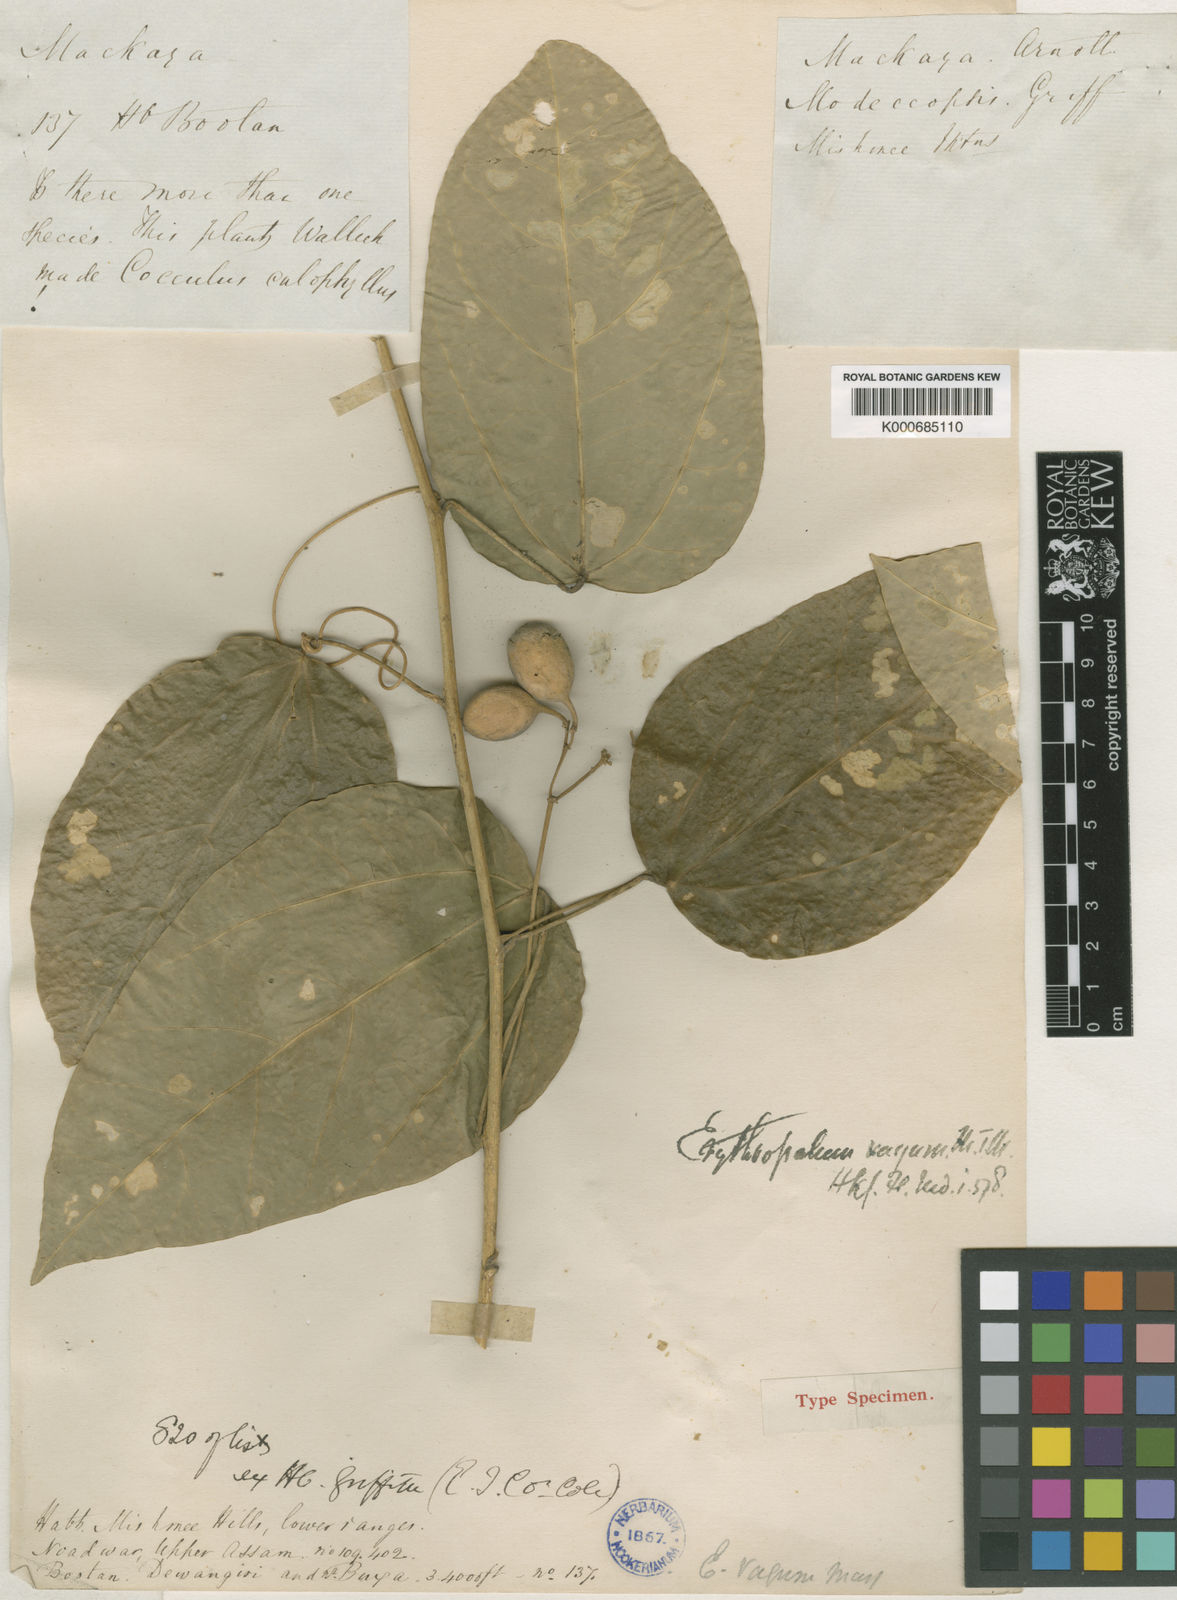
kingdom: Plantae
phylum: Tracheophyta
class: Magnoliopsida
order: Santalales
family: Erythropalaceae
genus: Erythropalum
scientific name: Erythropalum scandens
